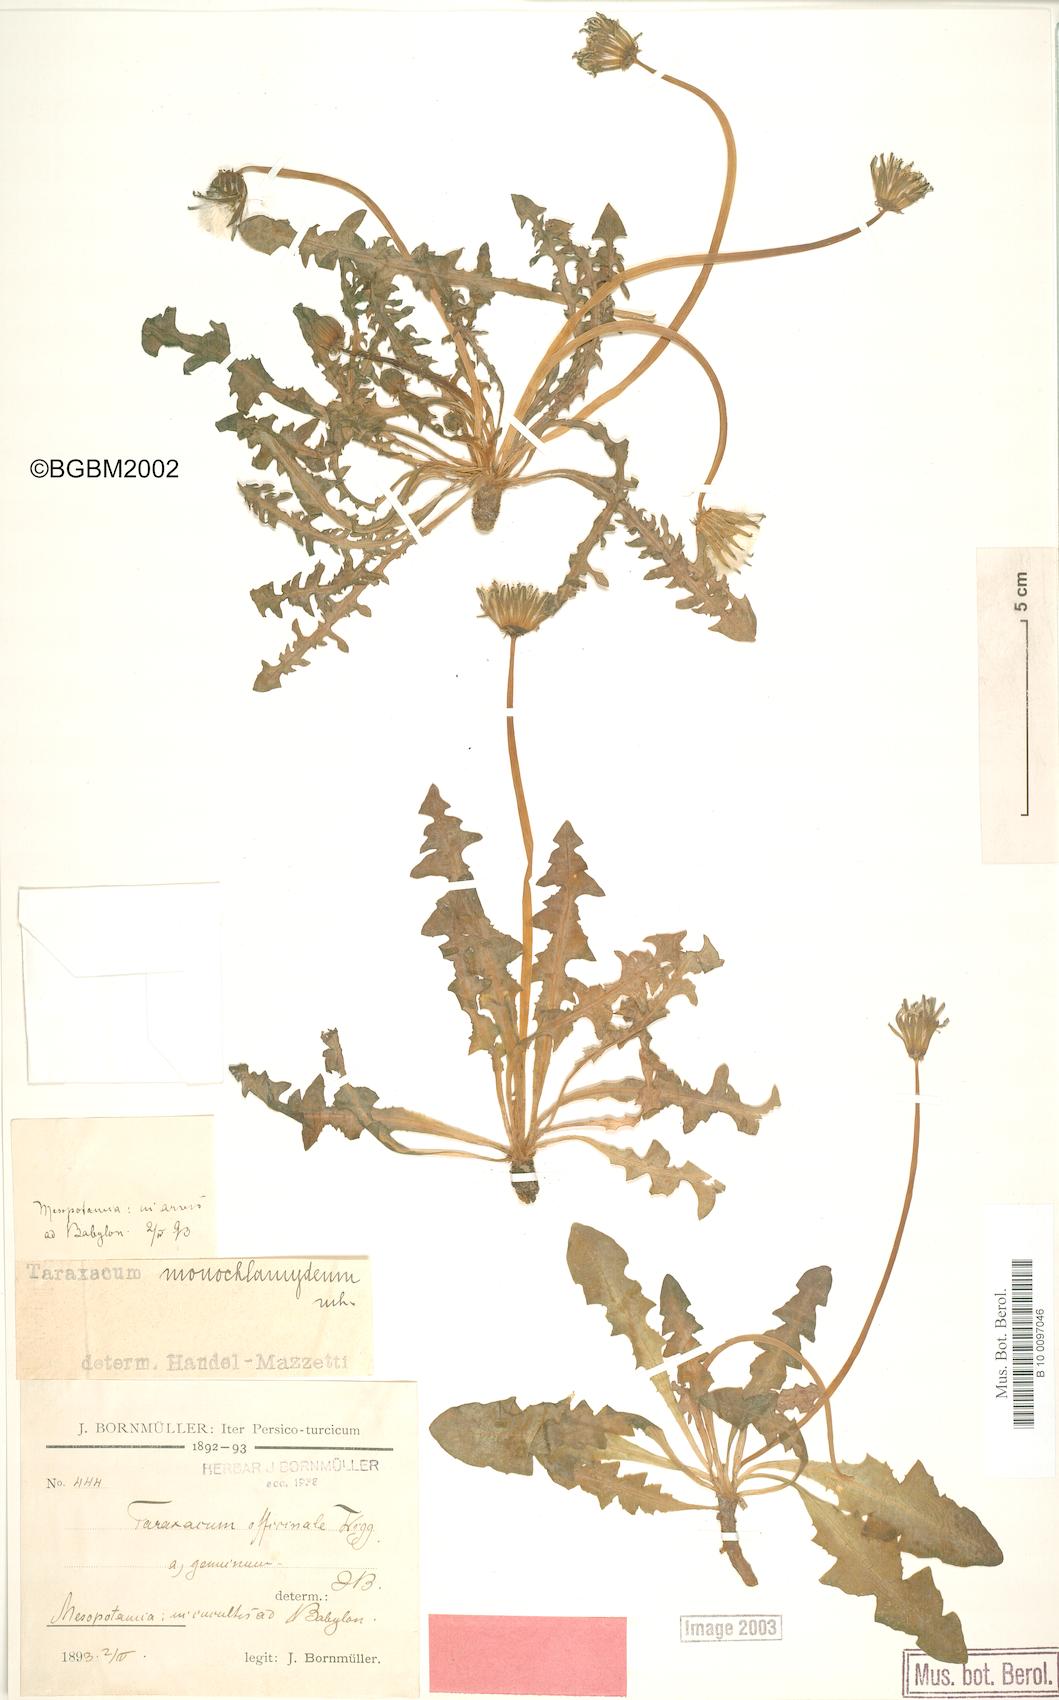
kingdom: Plantae
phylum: Tracheophyta
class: Magnoliopsida
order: Asterales
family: Asteraceae
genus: Taraxacum
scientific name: Taraxacum monochlamydeum
